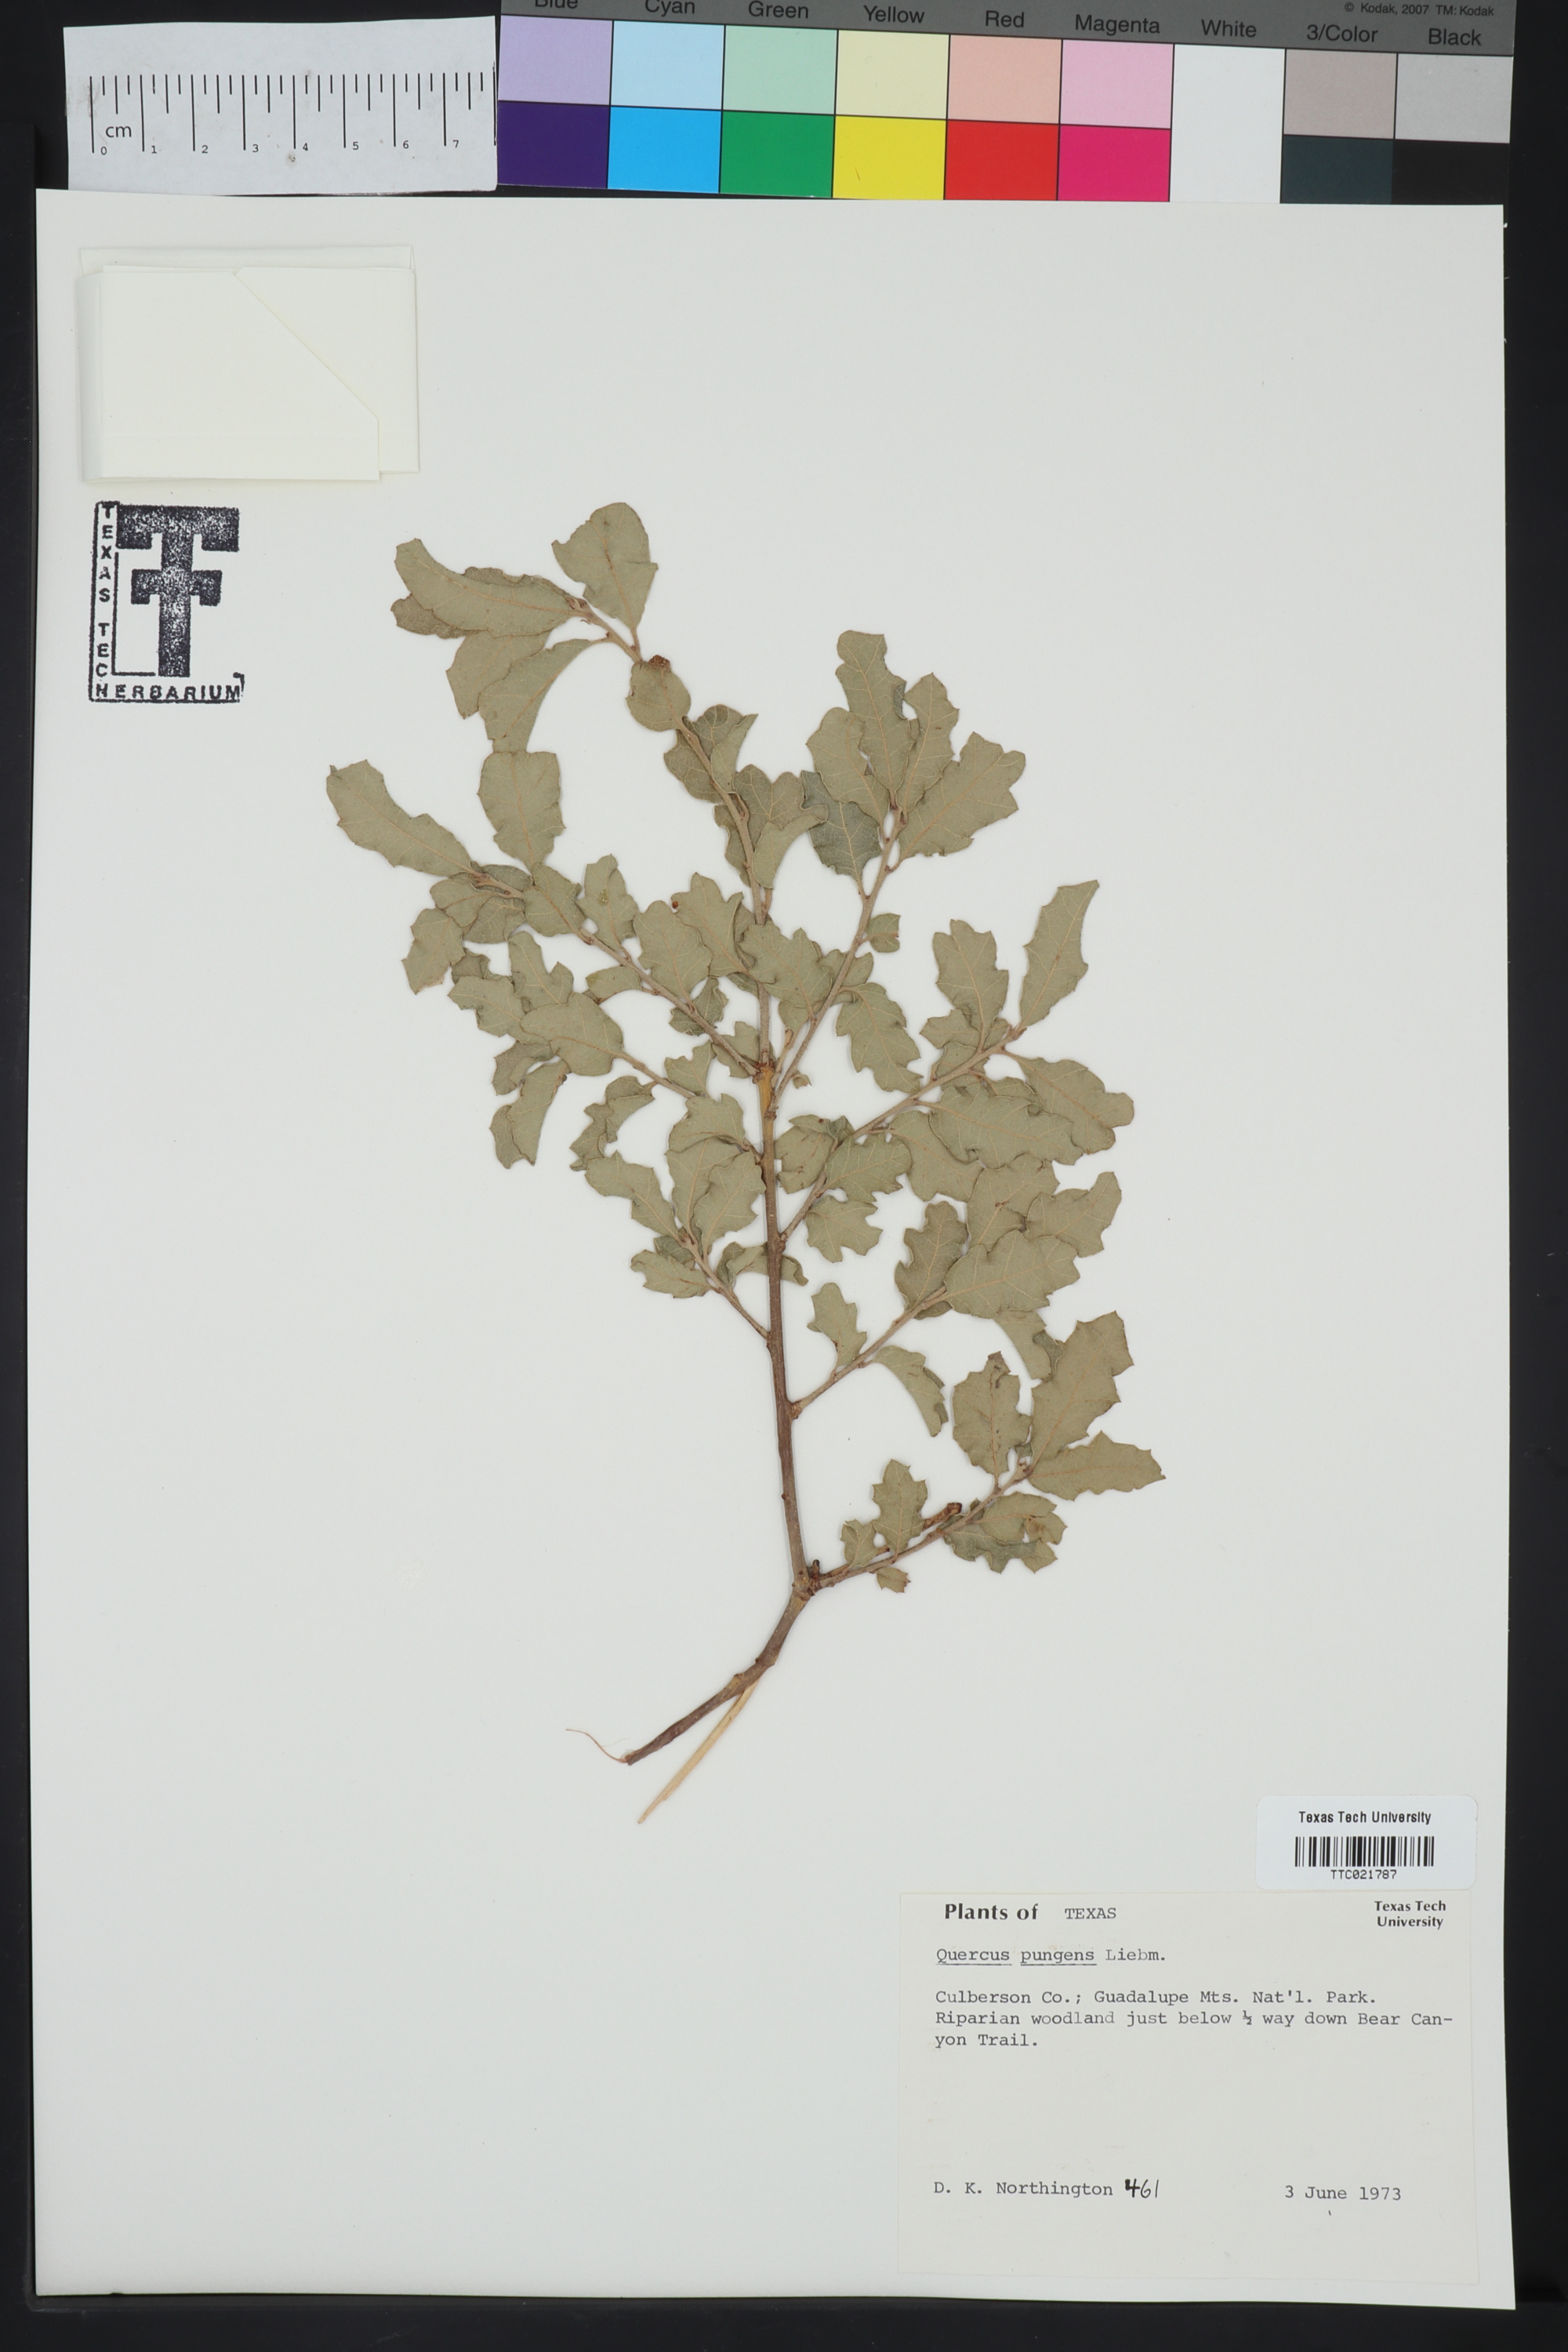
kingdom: Plantae
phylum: Tracheophyta
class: Magnoliopsida
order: Fagales
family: Fagaceae
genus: Quercus
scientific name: Quercus pungens
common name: Pungent oak
